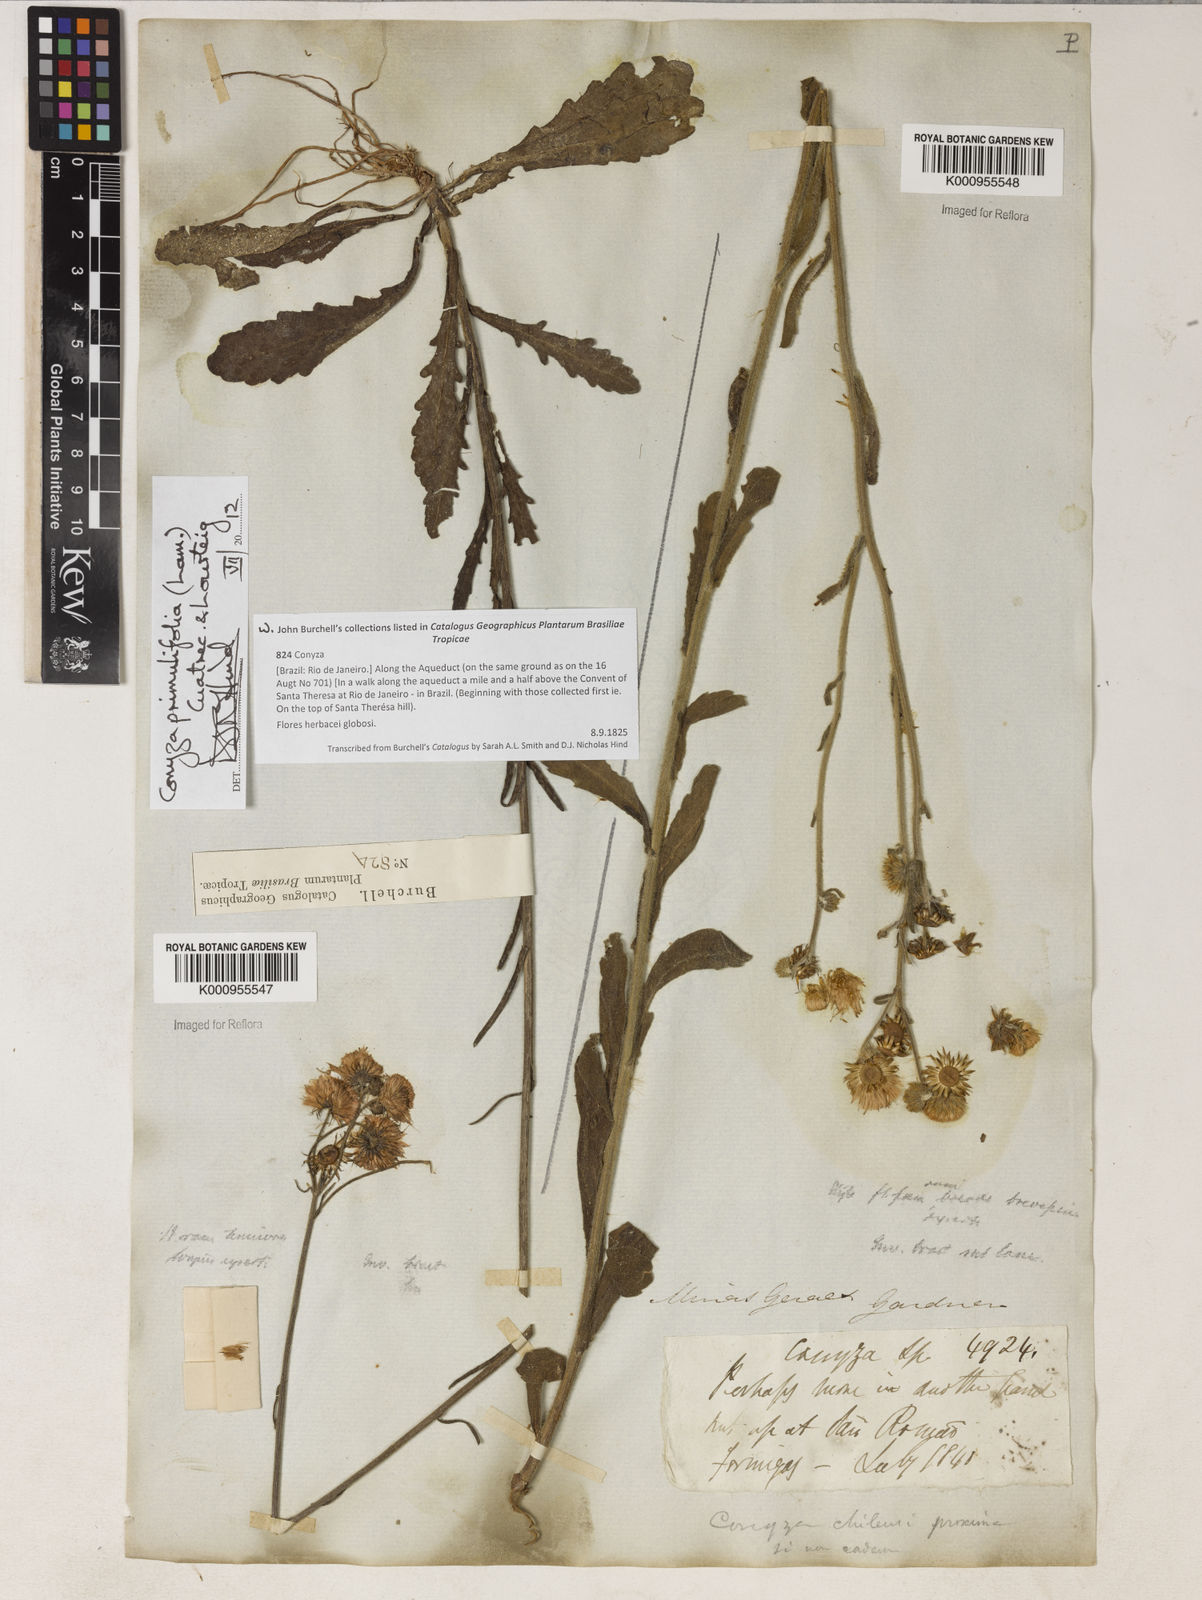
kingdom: Plantae
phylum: Tracheophyta
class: Magnoliopsida
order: Asterales
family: Asteraceae
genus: Erigeron
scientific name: Erigeron primulifolius
